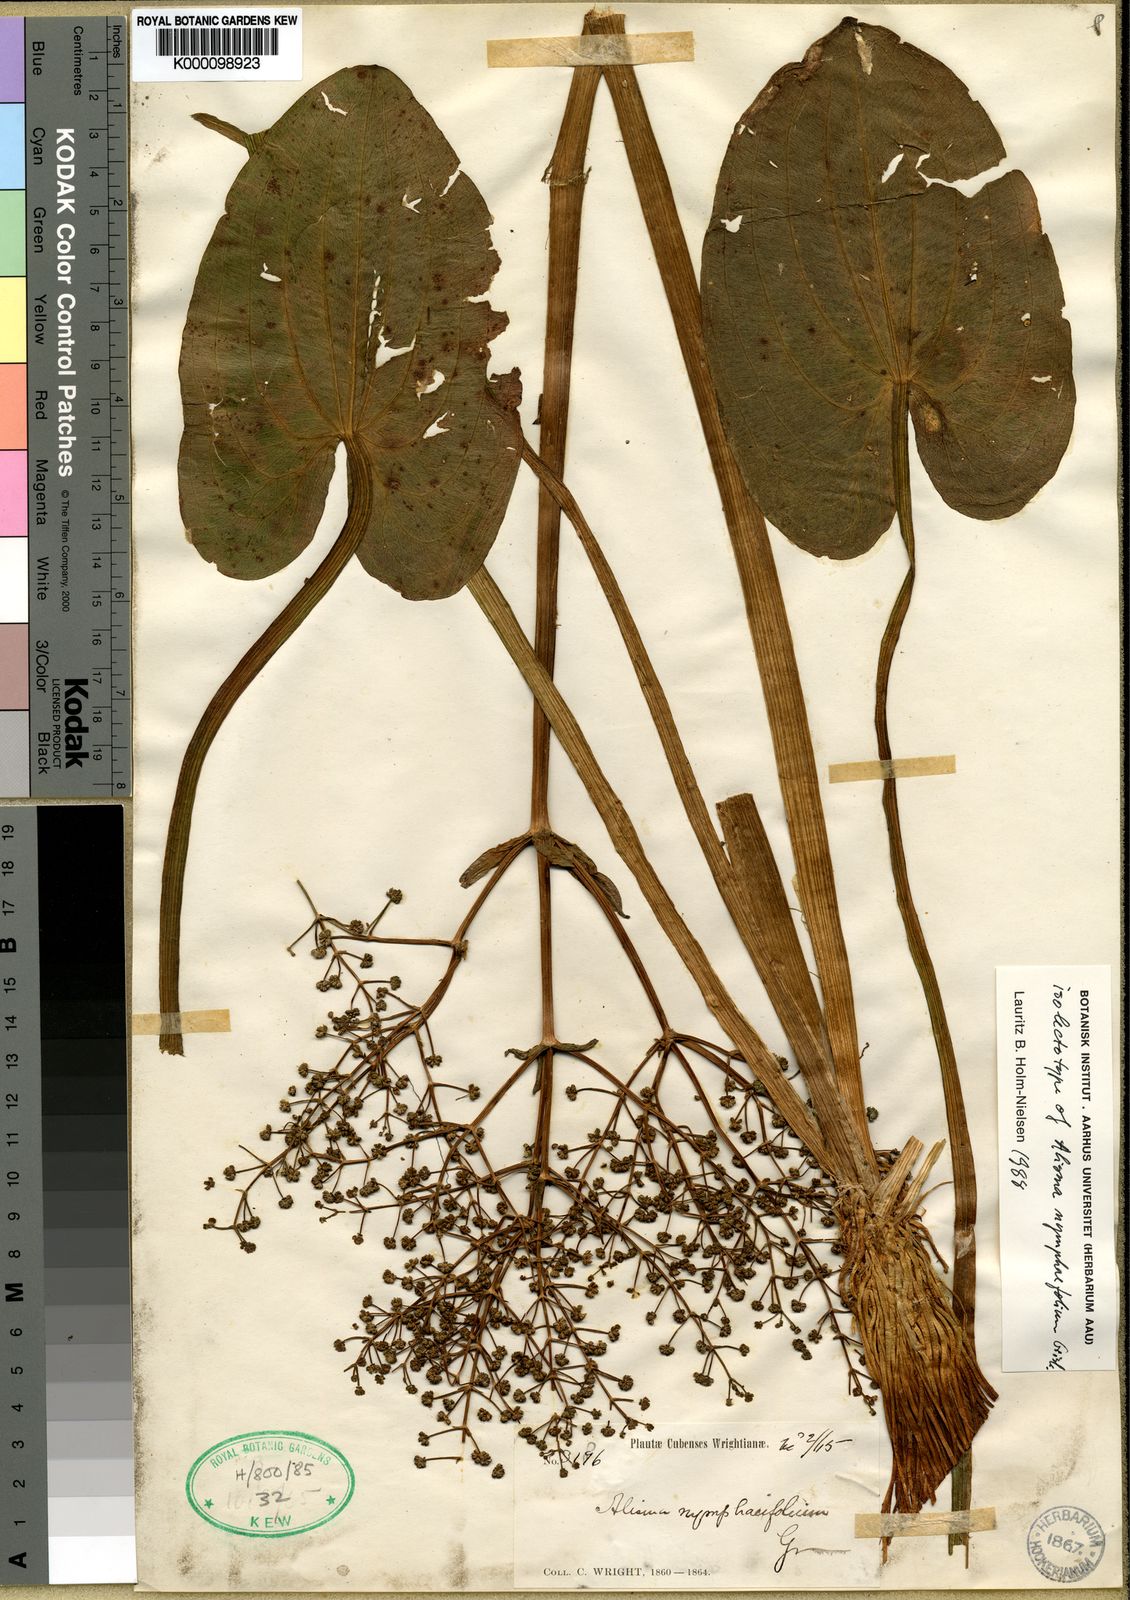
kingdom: Plantae
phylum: Tracheophyta
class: Liliopsida
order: Alismatales
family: Alismataceae
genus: Albidella
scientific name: Albidella nymphaeifolia
